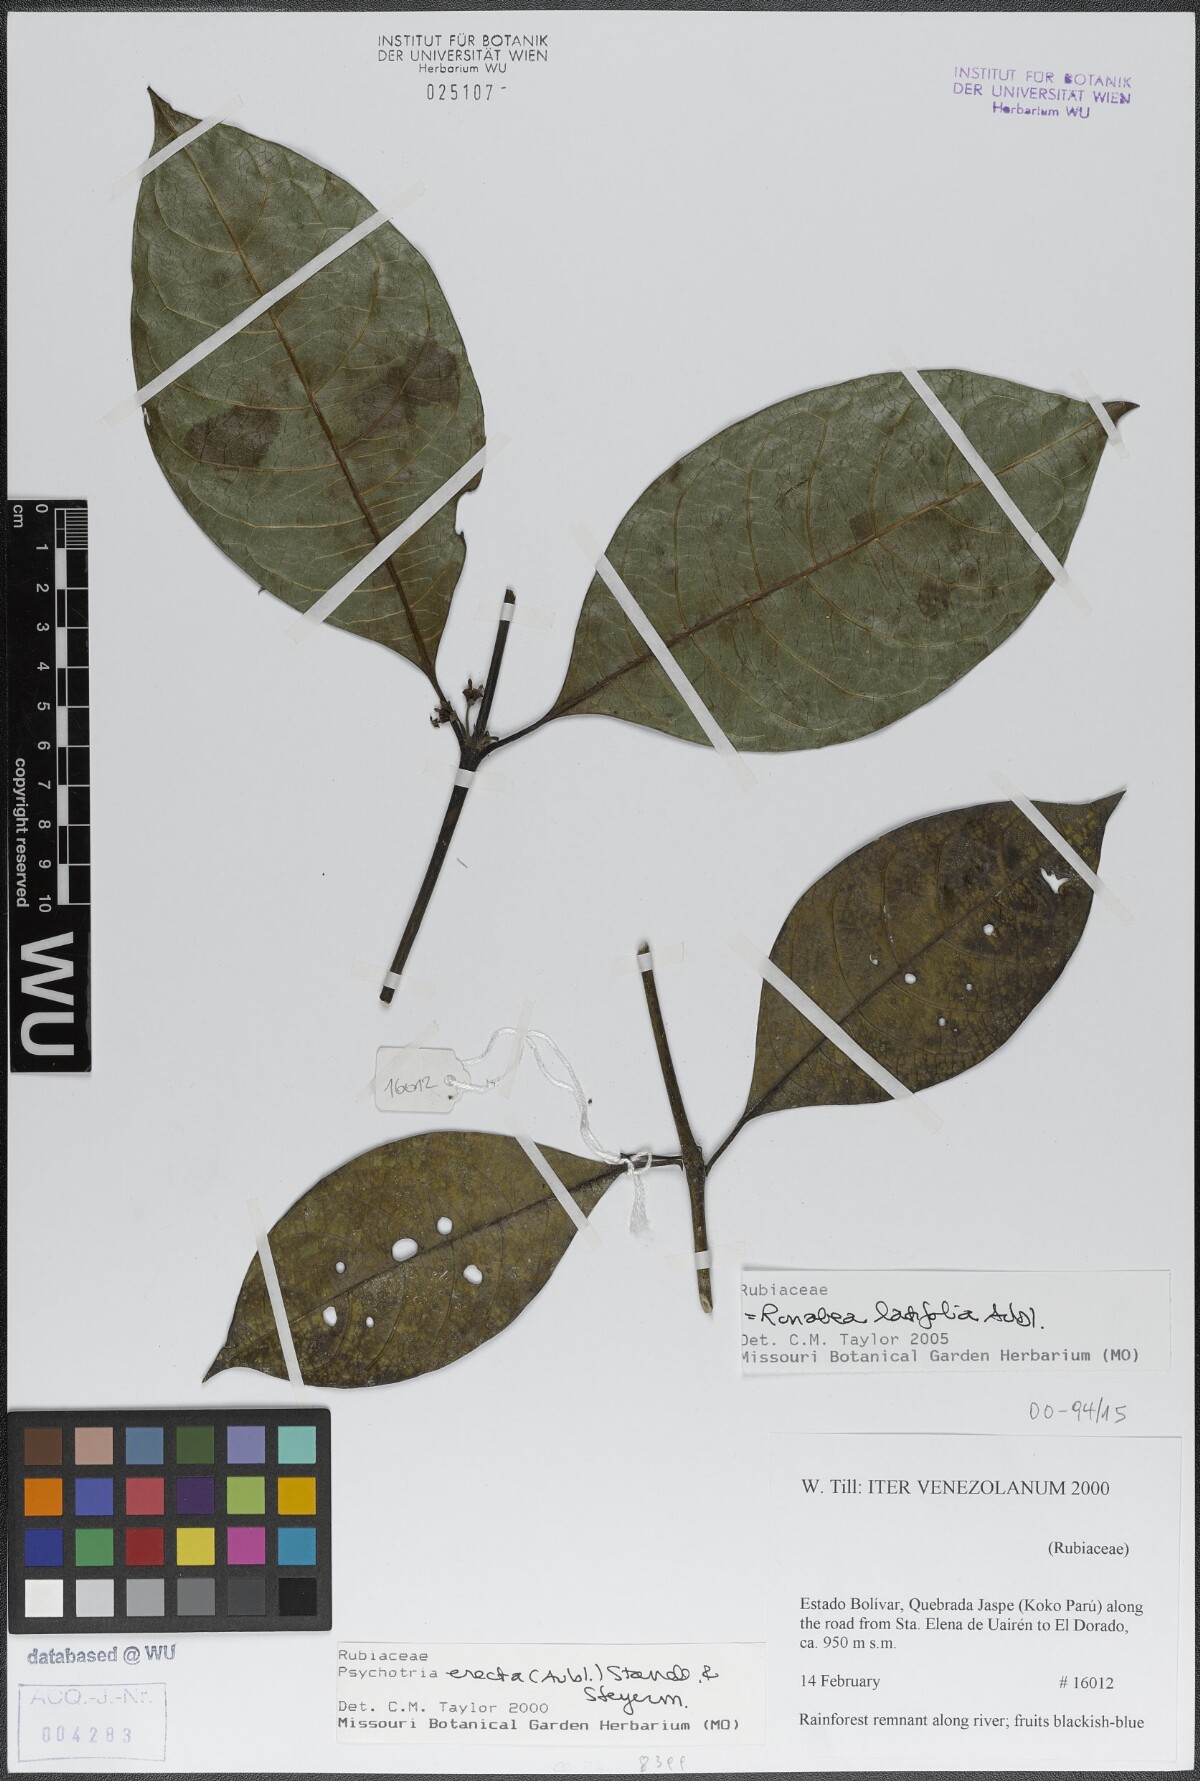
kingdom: Plantae
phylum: Tracheophyta
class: Magnoliopsida
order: Gentianales
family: Rubiaceae
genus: Ronabea
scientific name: Ronabea latifolia
